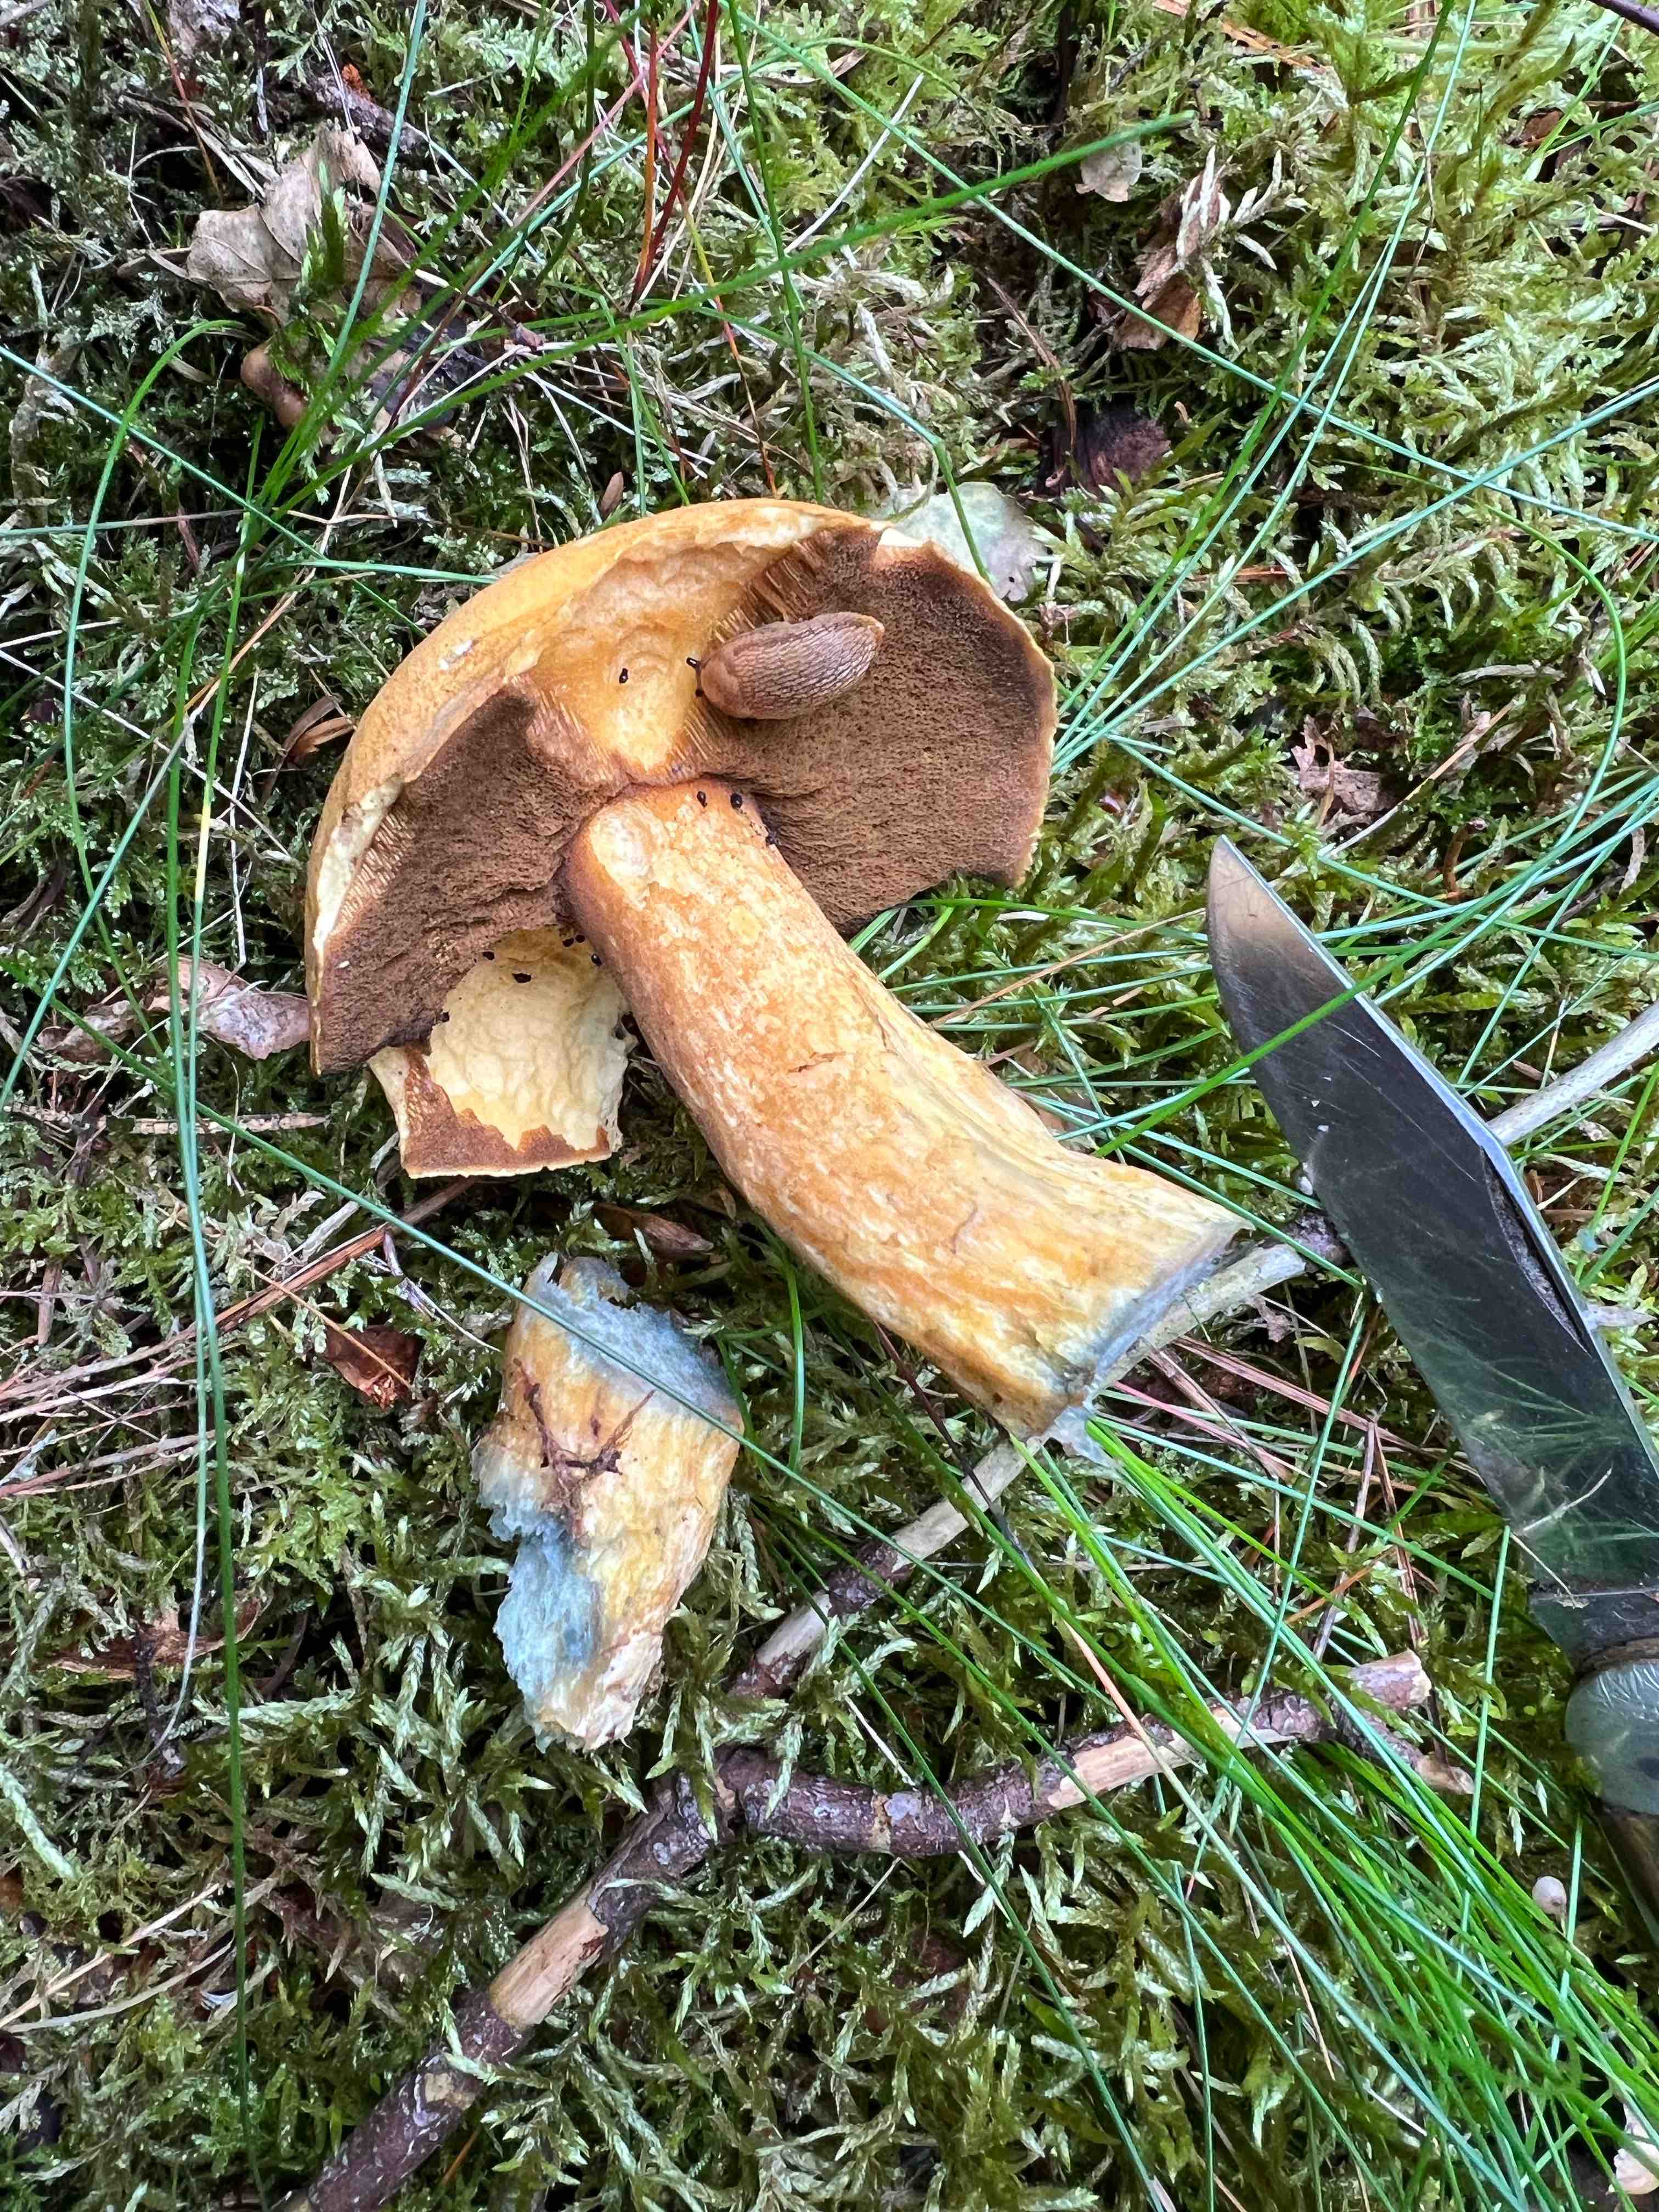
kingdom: Fungi
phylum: Basidiomycota
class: Agaricomycetes
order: Boletales
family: Suillaceae
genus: Suillus
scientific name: Suillus variegatus
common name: broget slimrørhat
